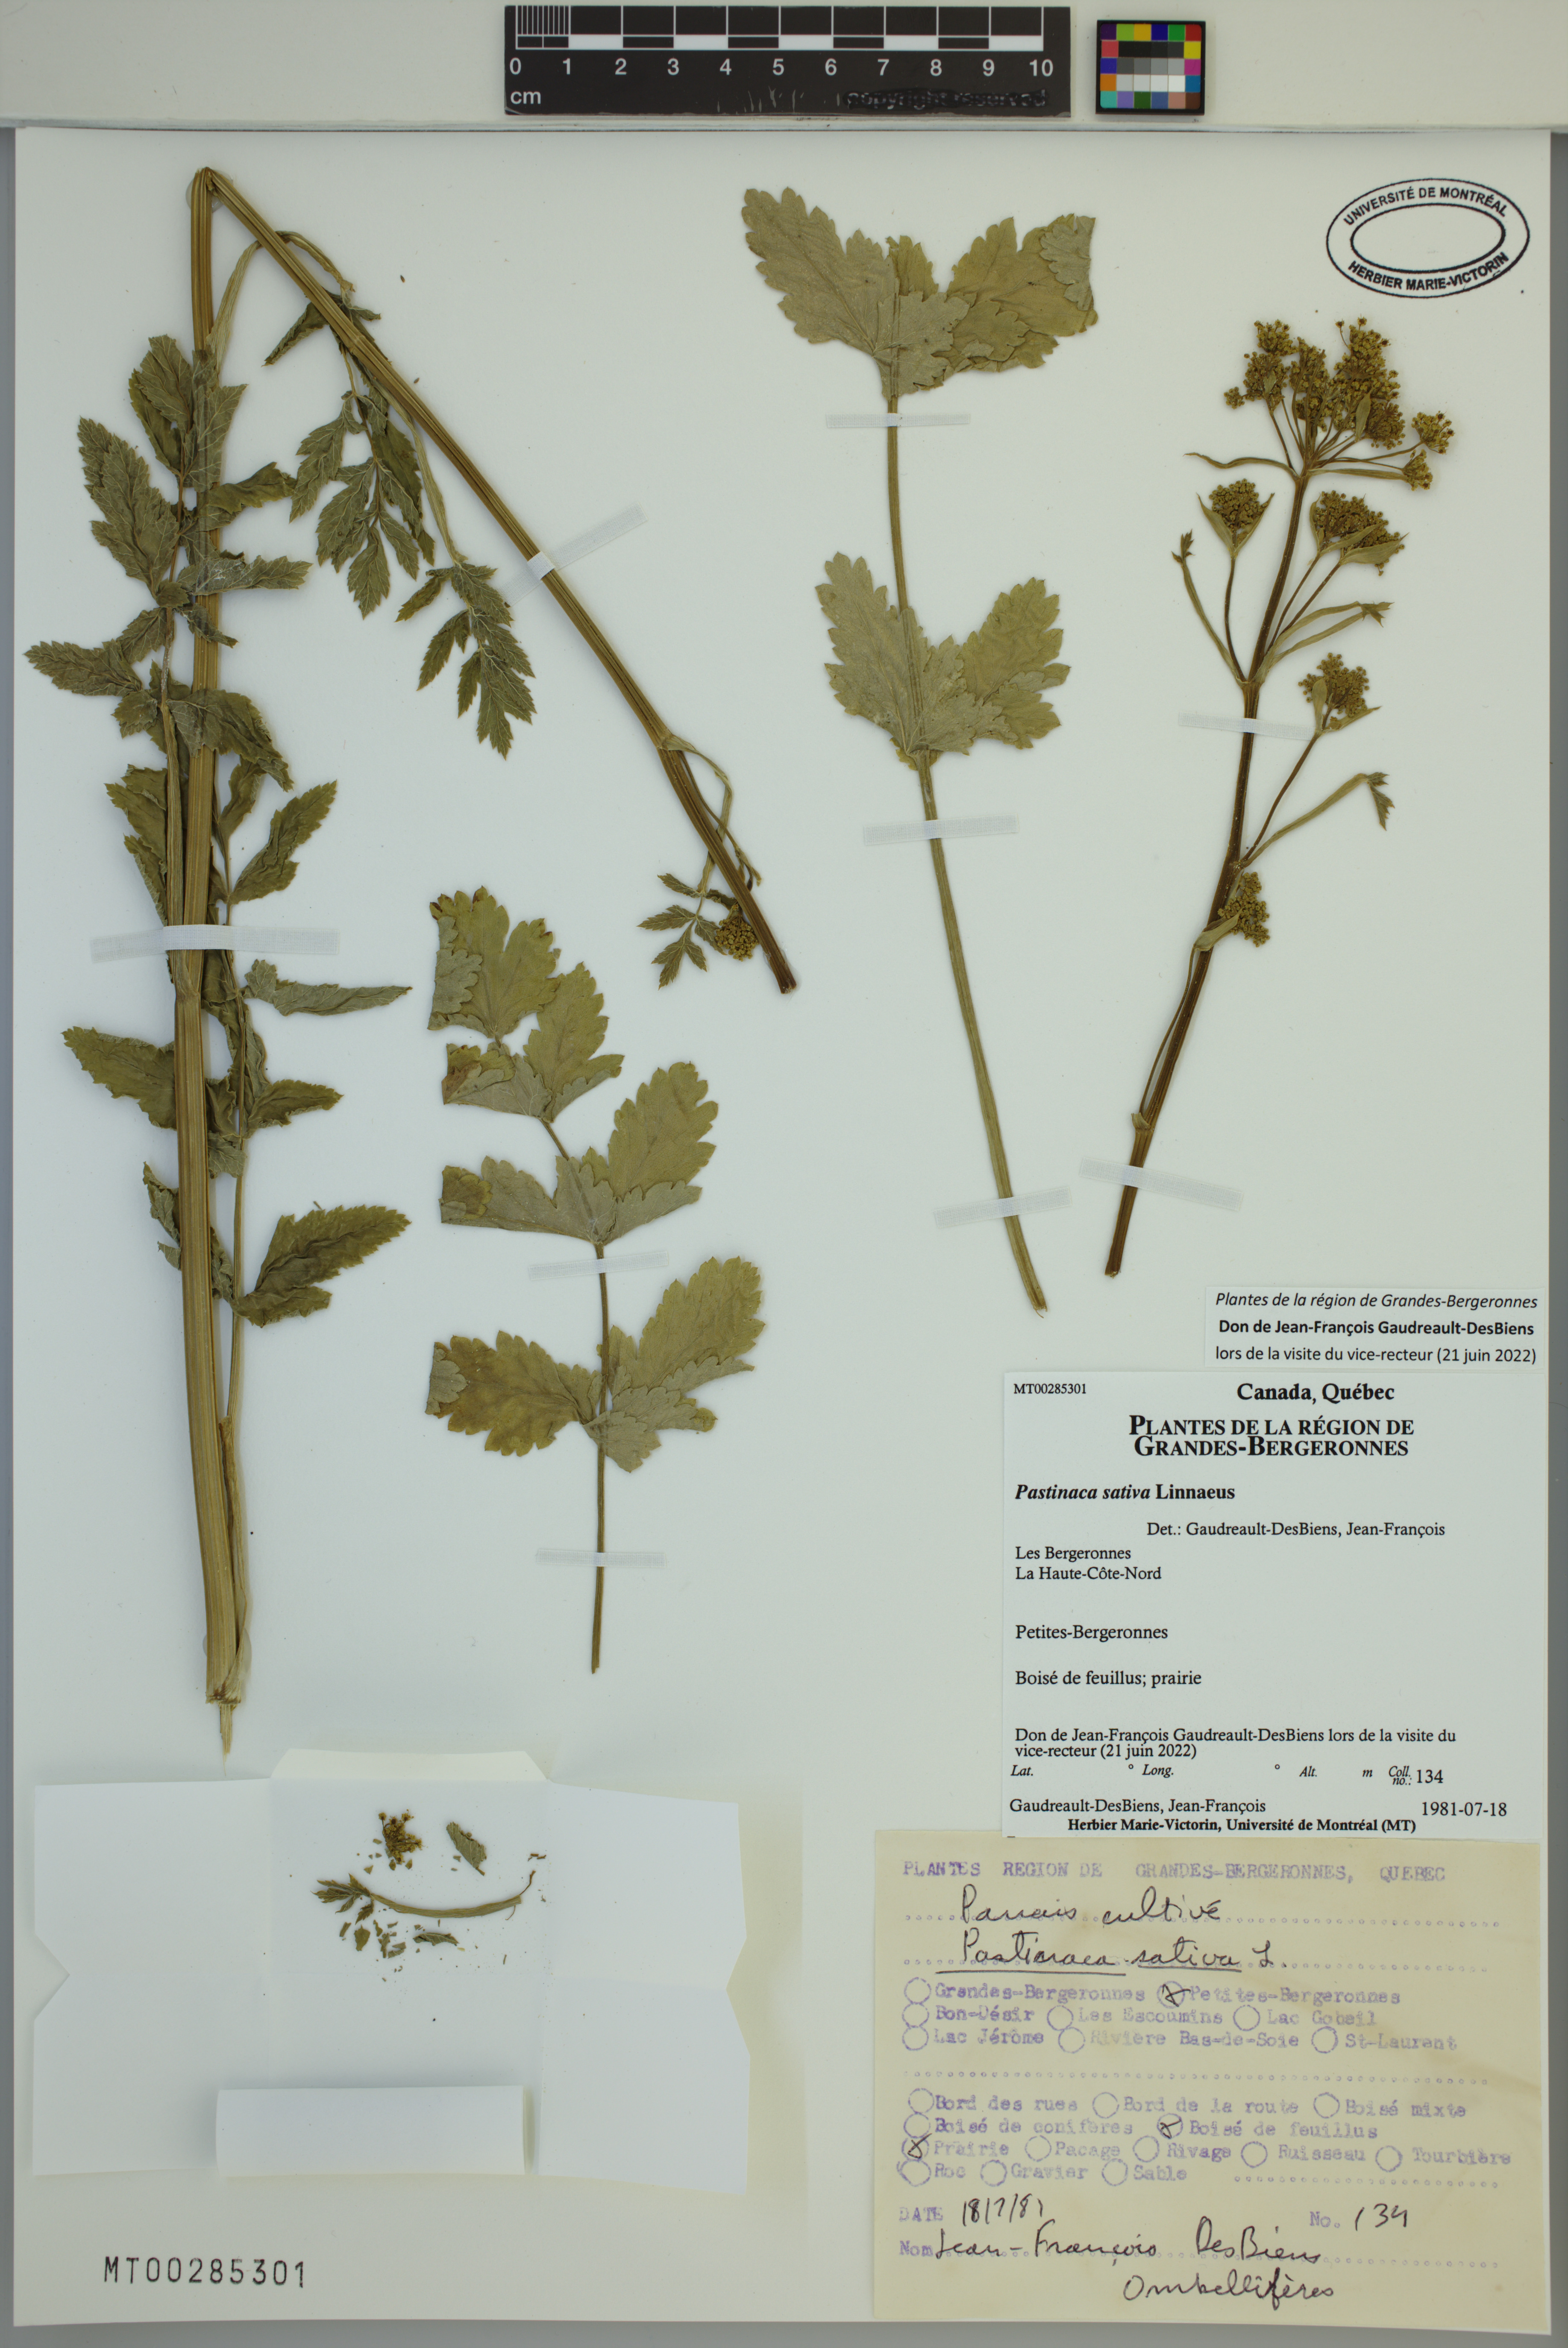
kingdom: Plantae
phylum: Tracheophyta
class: Magnoliopsida
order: Apiales
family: Apiaceae
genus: Pastinaca
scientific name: Pastinaca sativa
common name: Wild parsnip
